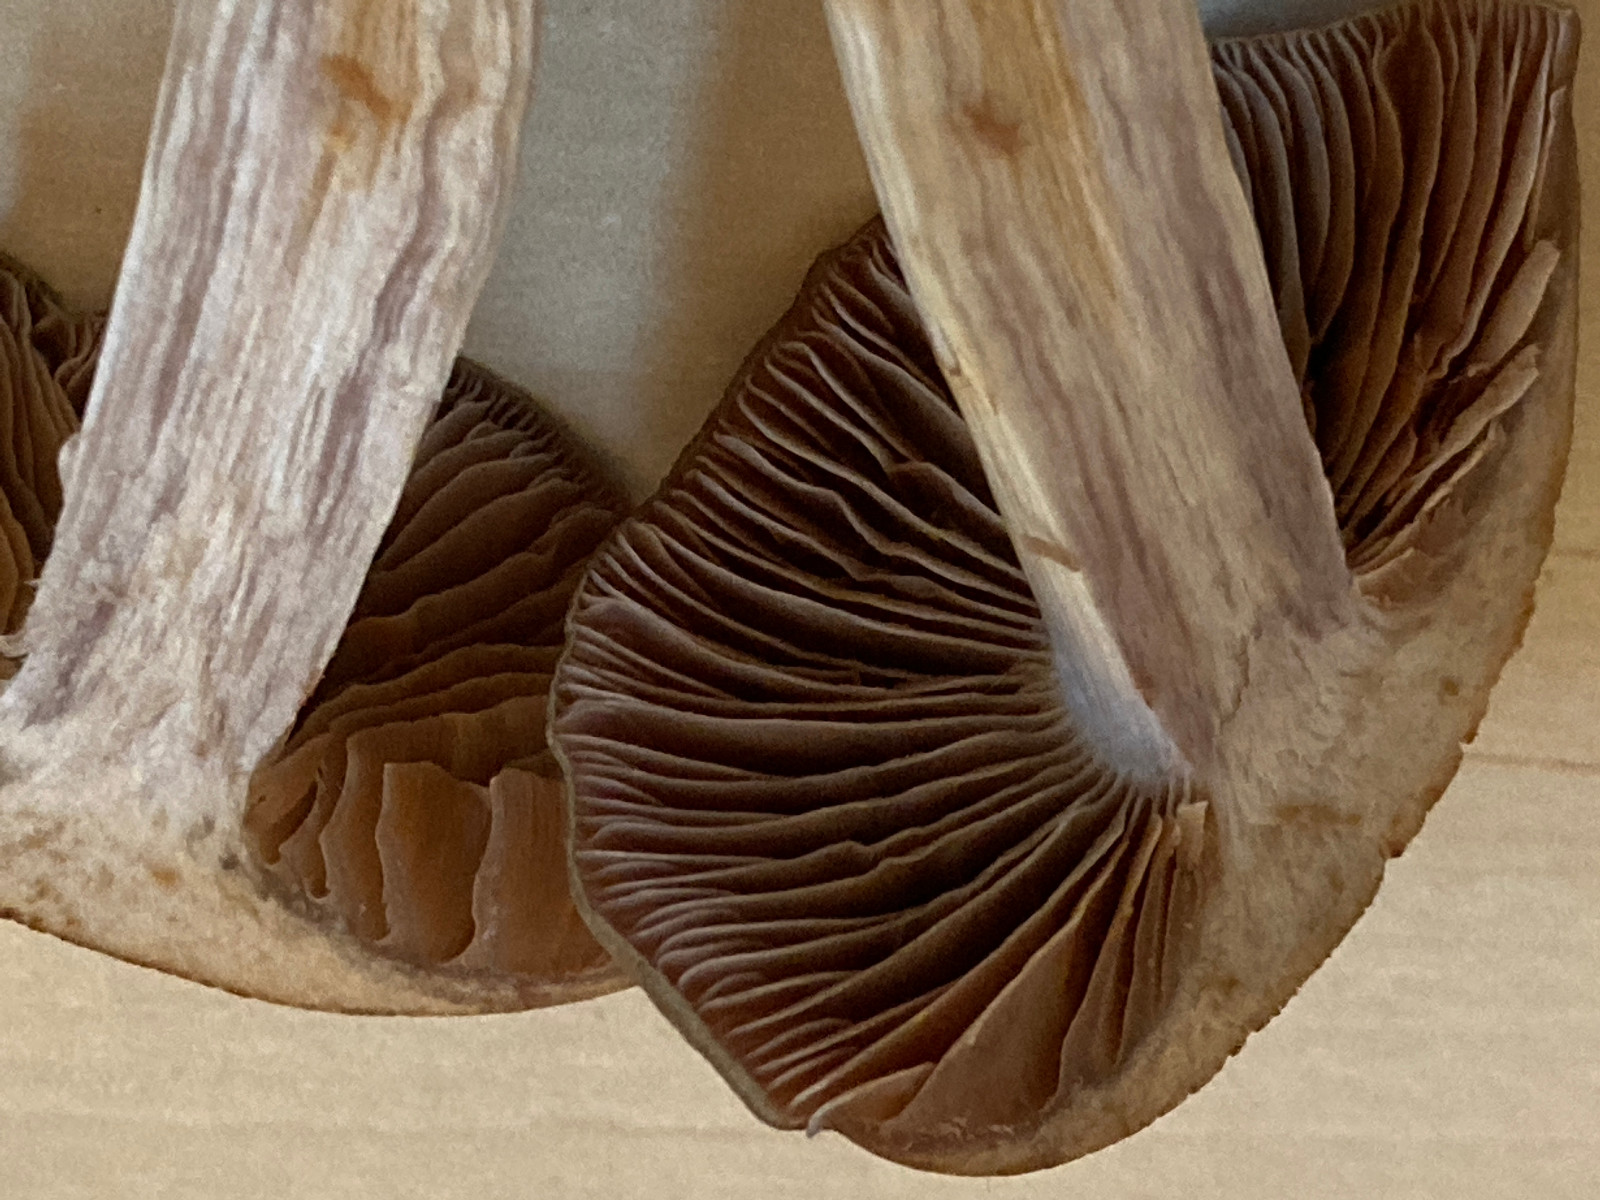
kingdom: Fungi
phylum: Basidiomycota
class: Agaricomycetes
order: Agaricales
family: Cortinariaceae
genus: Thaxterogaster
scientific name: Thaxterogaster sphagnophilus
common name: vandplettet slørhat
